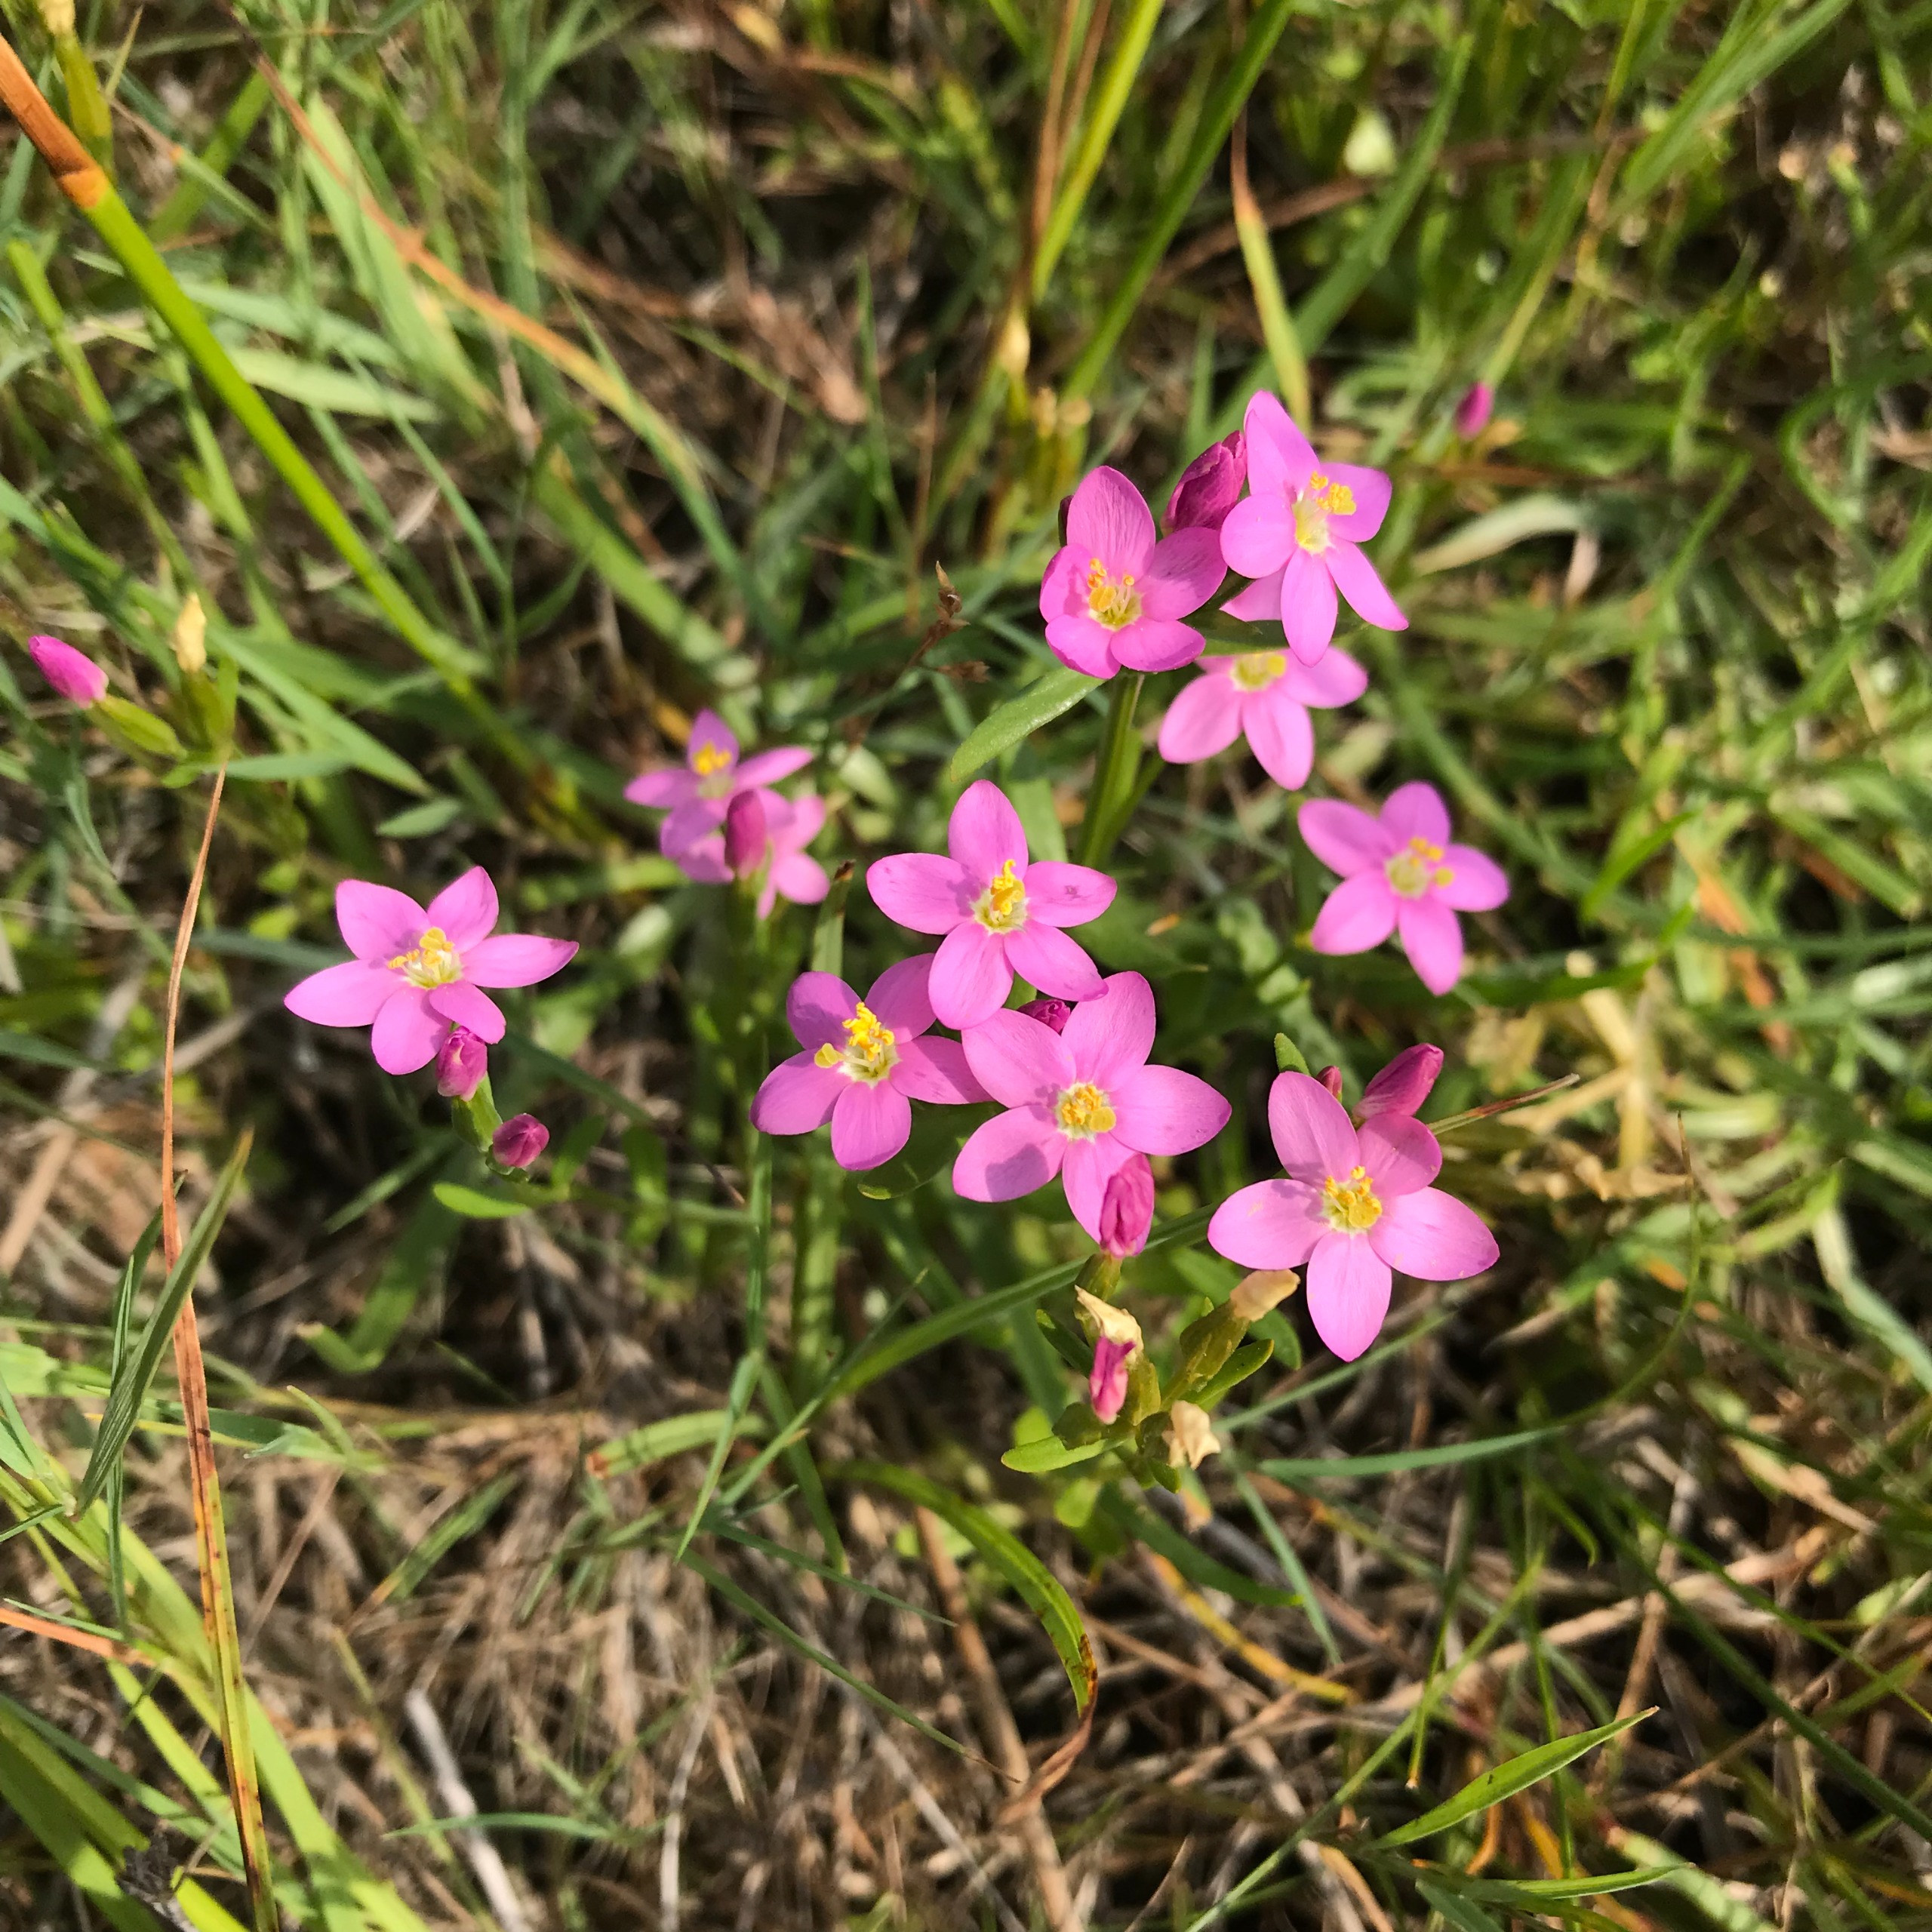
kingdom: Plantae
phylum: Tracheophyta
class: Magnoliopsida
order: Gentianales
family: Gentianaceae
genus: Centaurium
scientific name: Centaurium littorale
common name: Strand-tusindgylden
